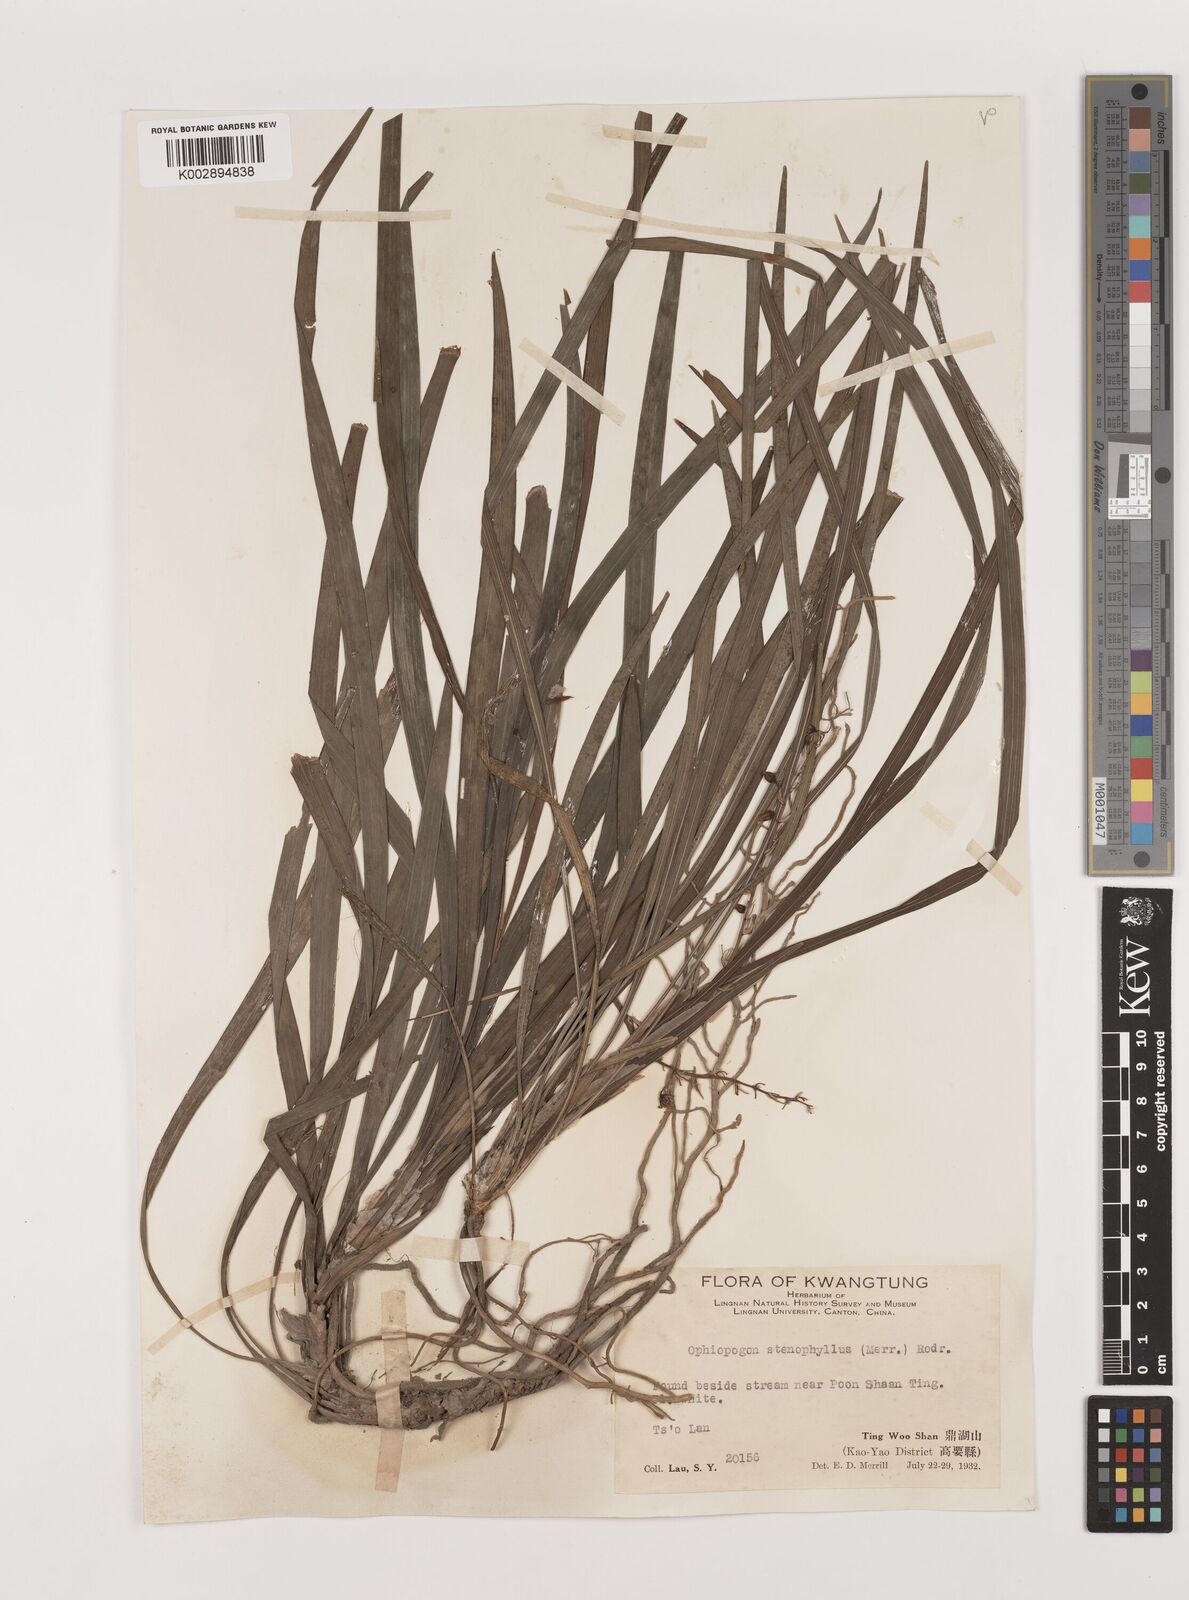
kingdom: Plantae
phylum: Tracheophyta
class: Liliopsida
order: Asparagales
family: Asparagaceae
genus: Ophiopogon
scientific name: Ophiopogon stenophyllus
